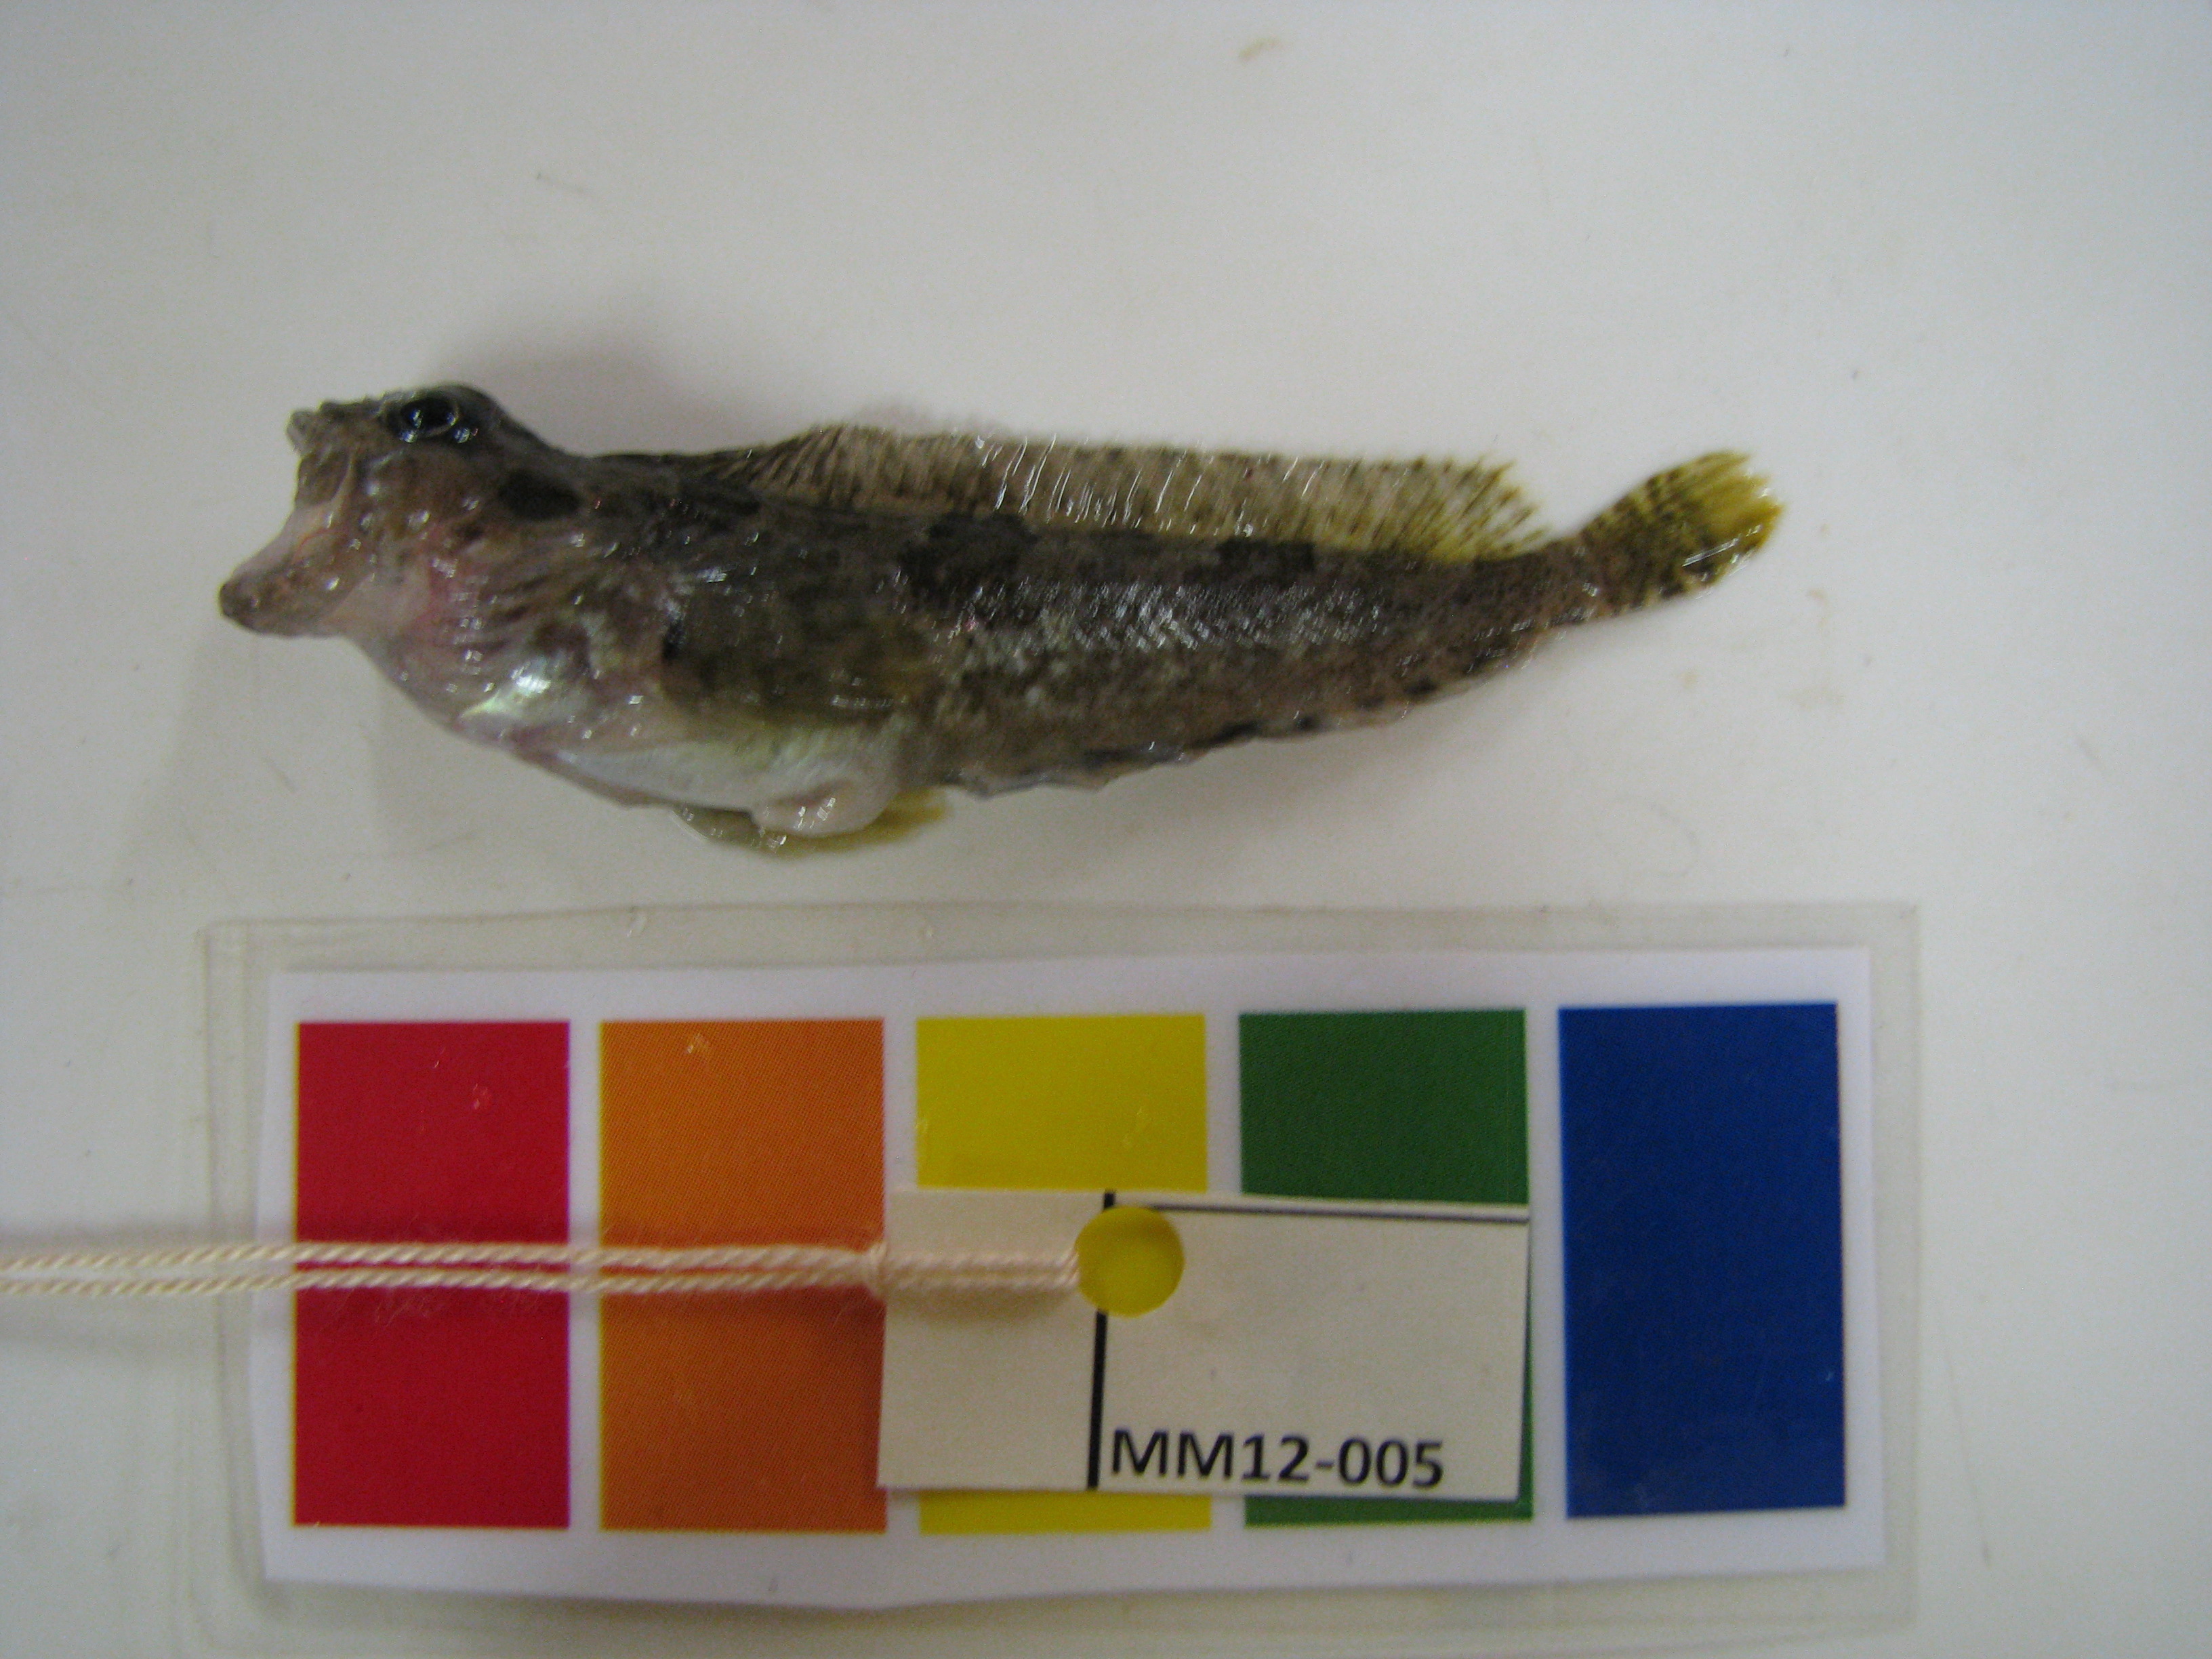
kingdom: Animalia
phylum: Chordata
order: Perciformes
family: Clinidae
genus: Clinus
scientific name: Clinus cottoides
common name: Bluntnose klipfish
